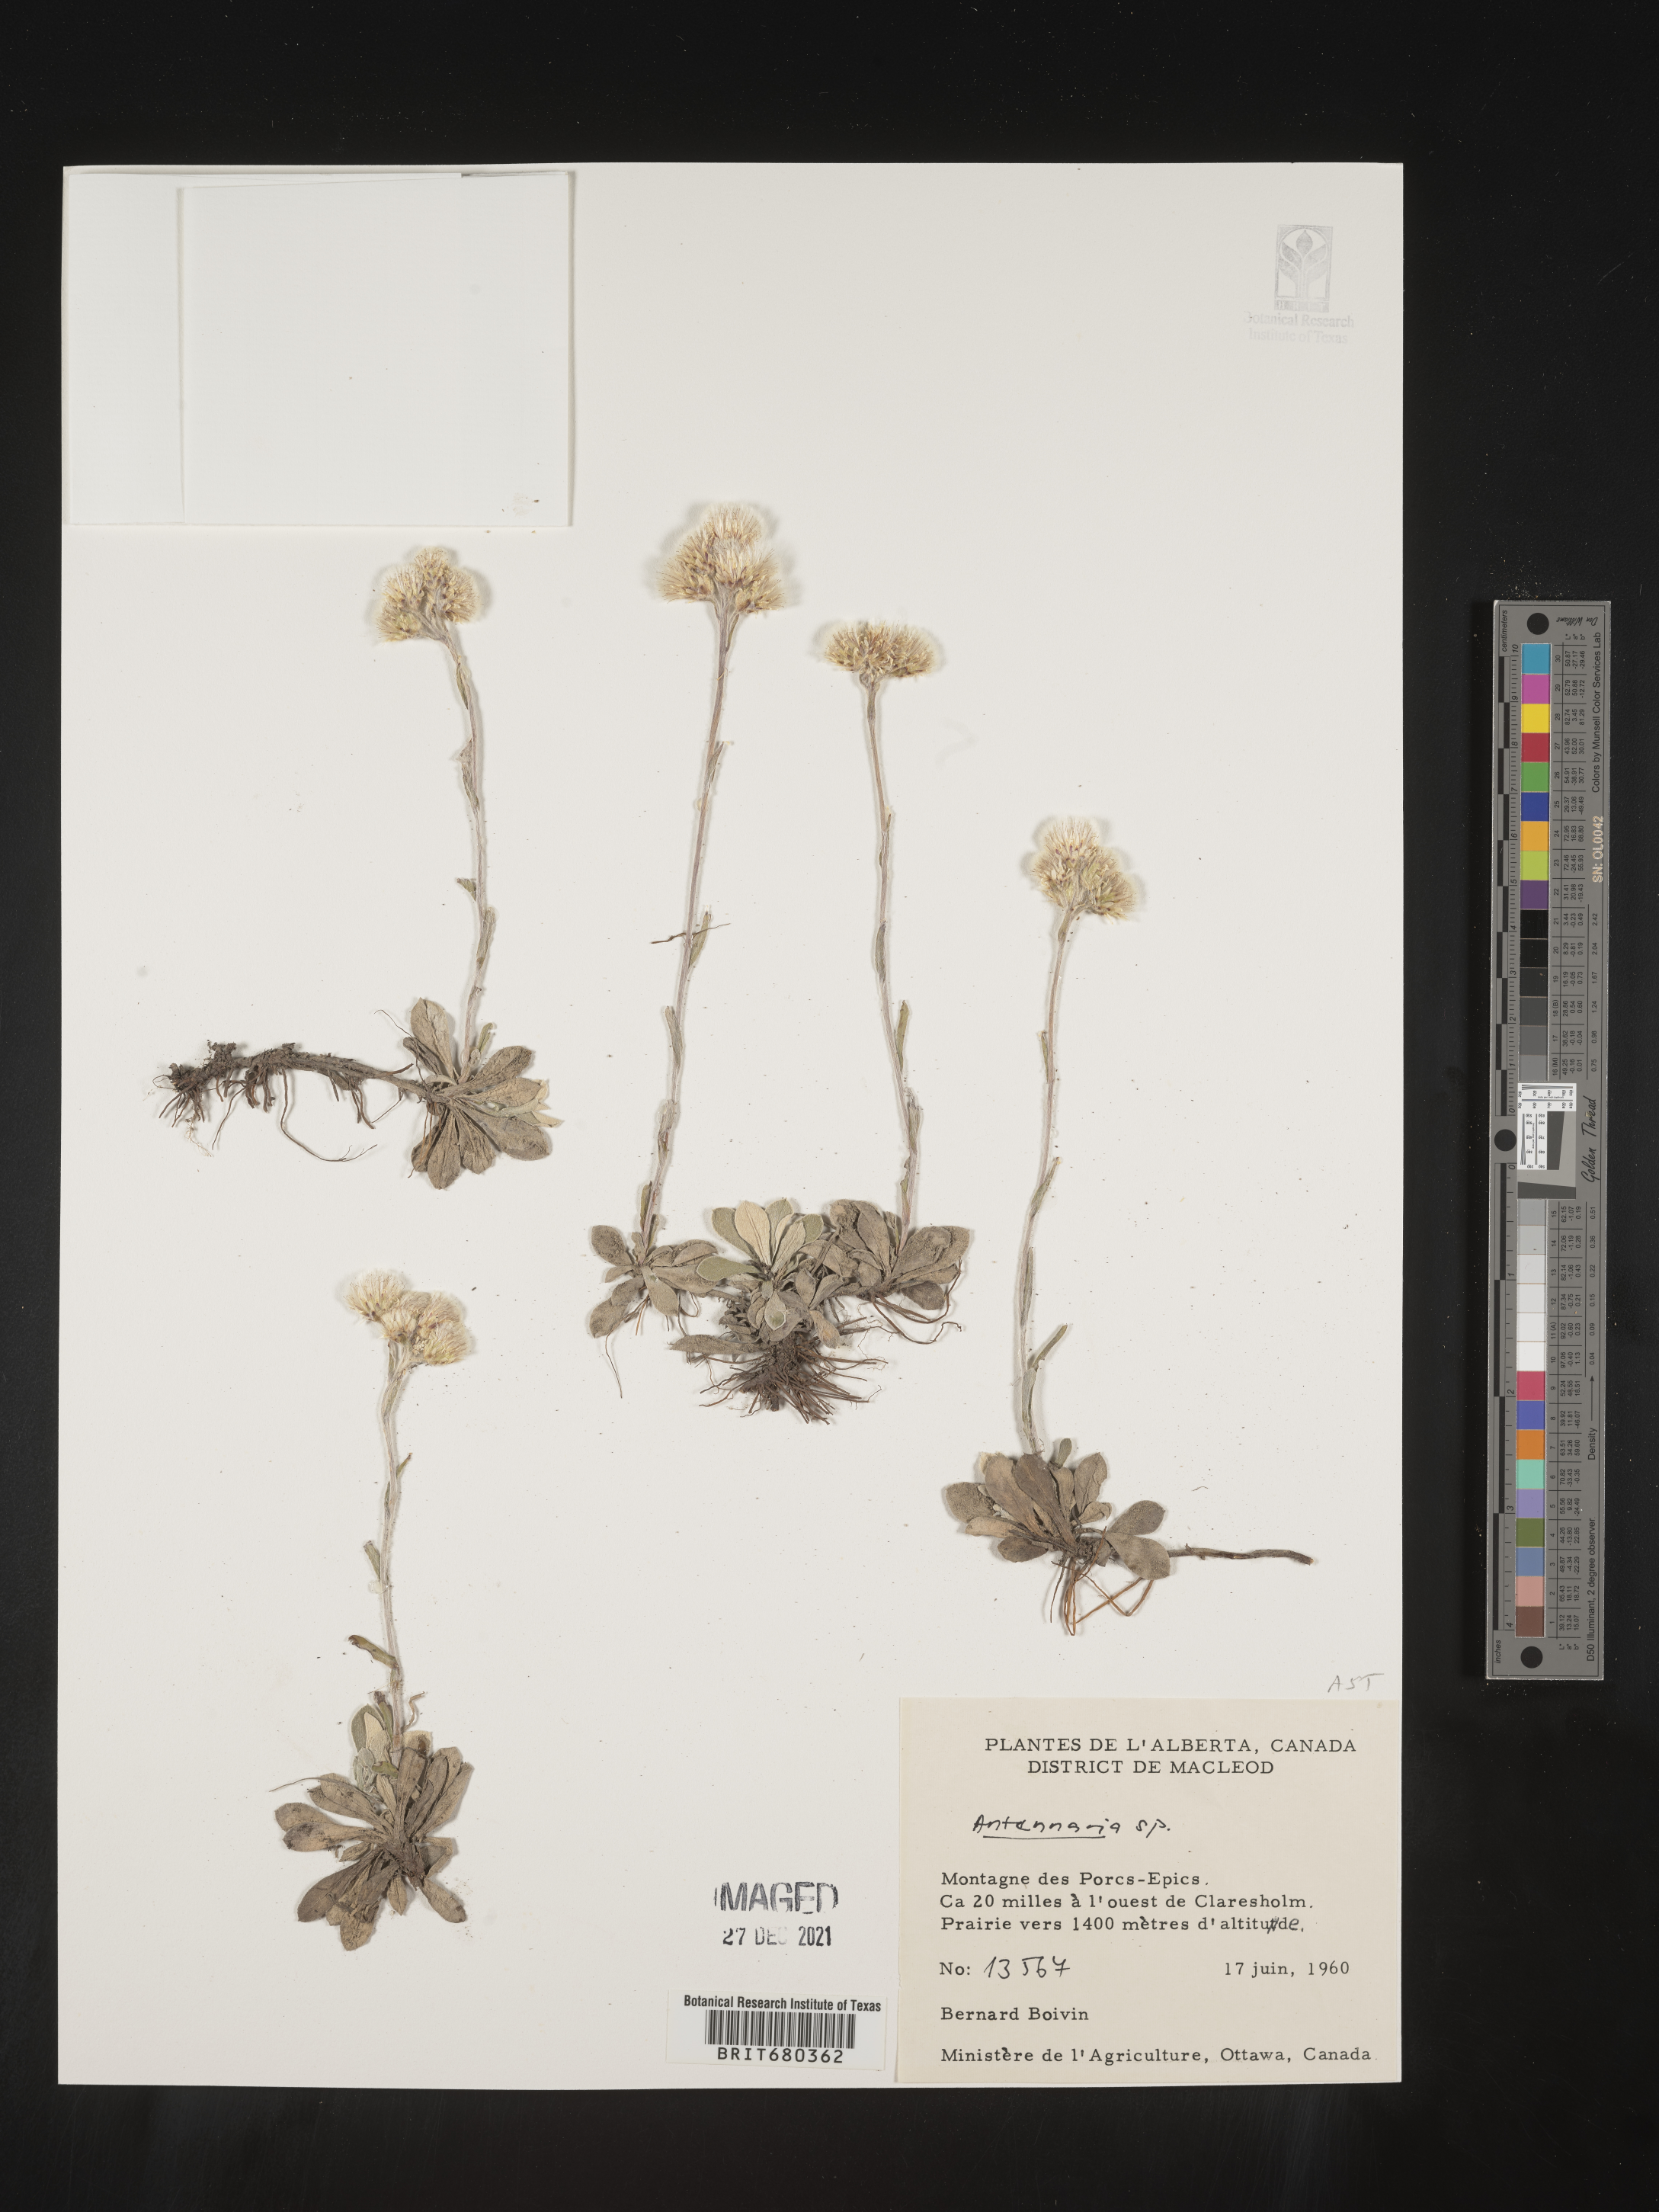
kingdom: Plantae
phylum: Tracheophyta
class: Magnoliopsida
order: Asterales
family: Asteraceae
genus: Antennaria
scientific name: Antennaria
